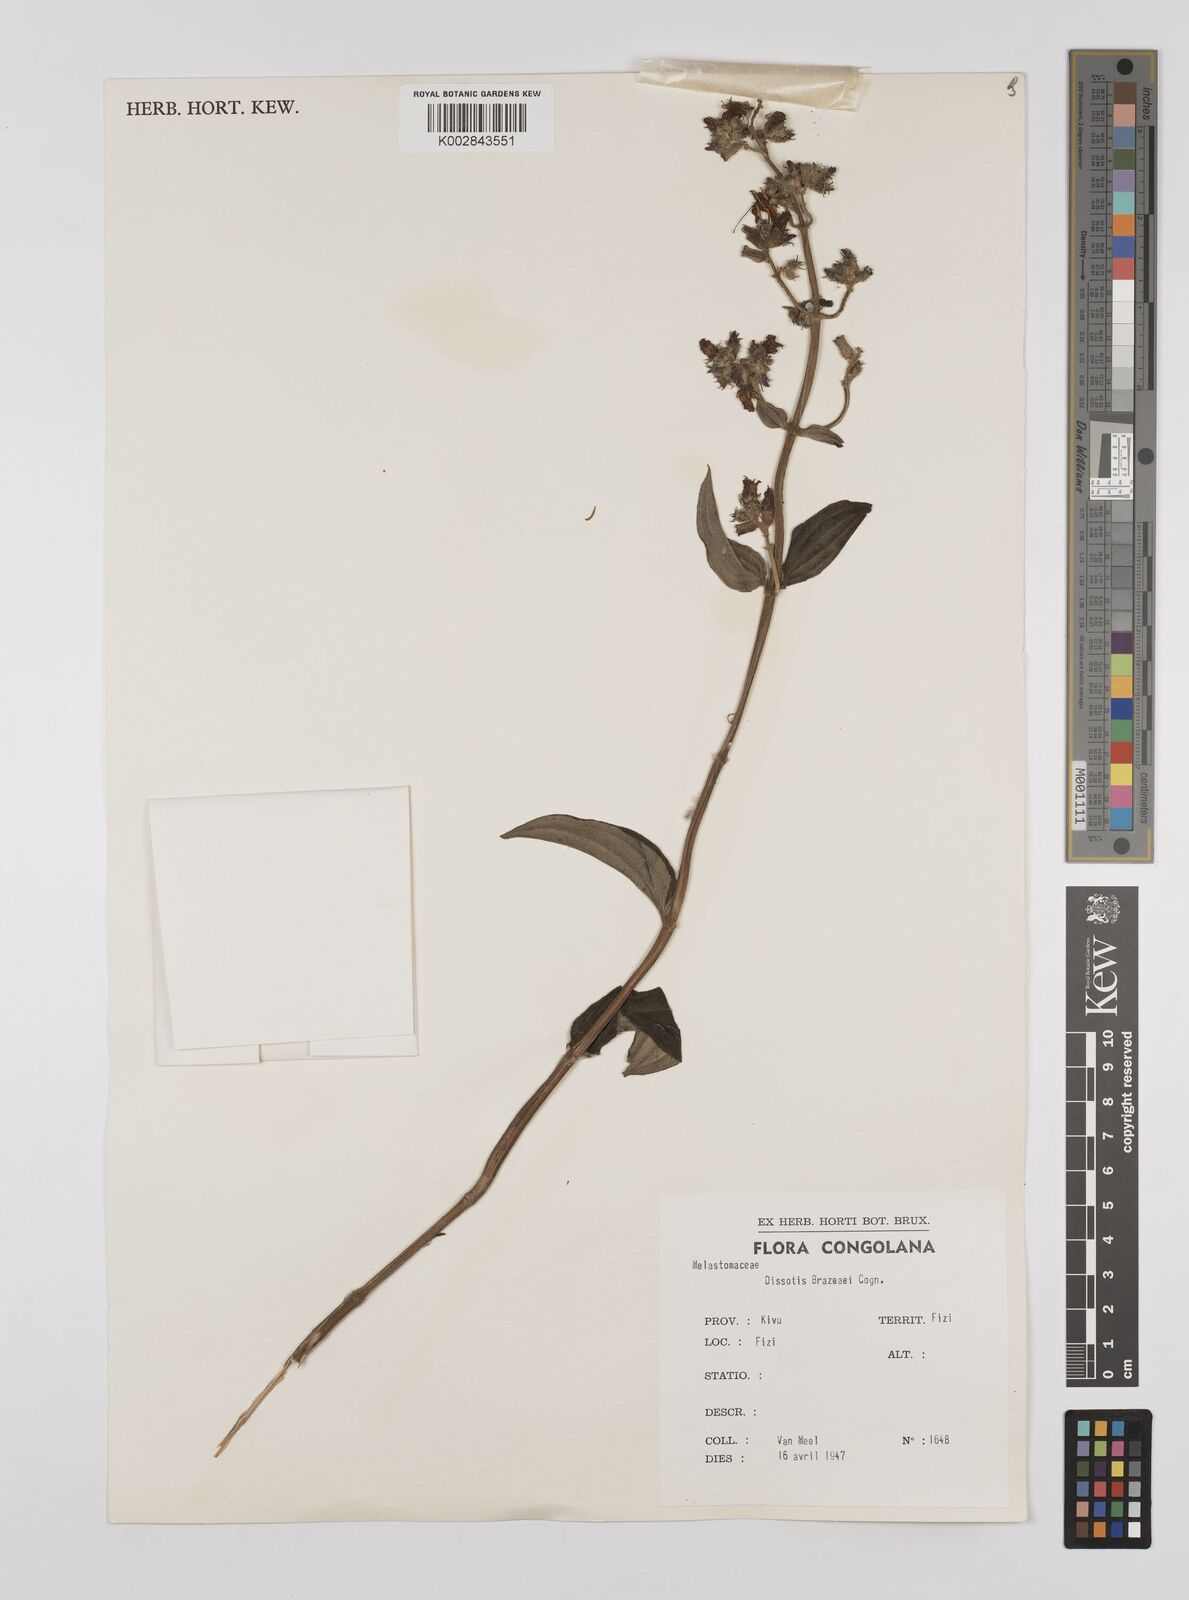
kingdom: Plantae
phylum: Tracheophyta
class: Magnoliopsida
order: Myrtales
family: Melastomataceae
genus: Dupineta
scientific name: Dupineta brazzae
